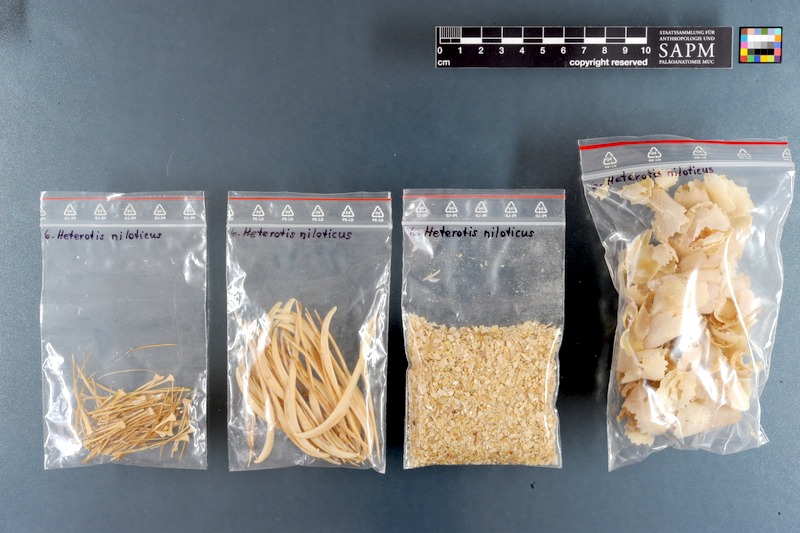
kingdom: Animalia
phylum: Chordata
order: Osteoglossiformes
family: Arapaimidae
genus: Heterotis
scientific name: Heterotis niloticus
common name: African bonytongue
